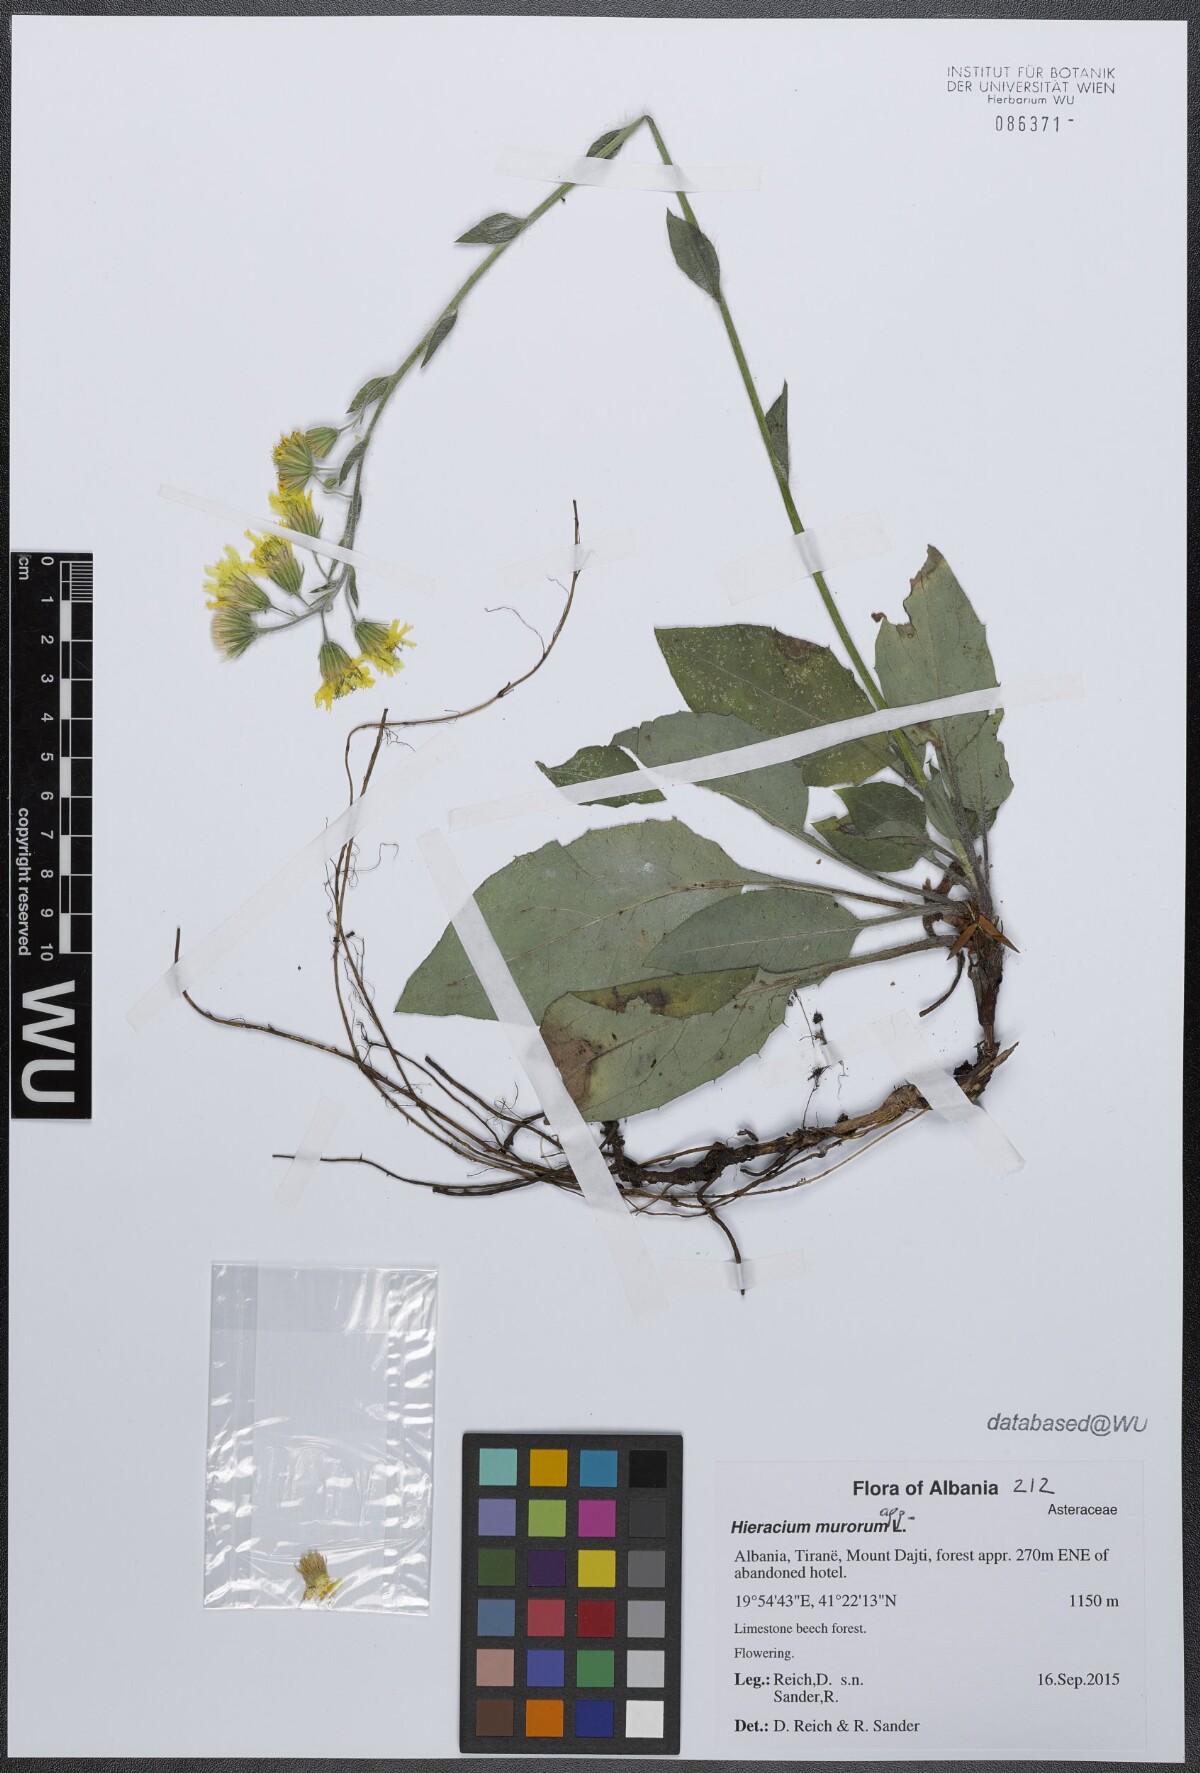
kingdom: Plantae
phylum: Tracheophyta
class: Magnoliopsida
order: Asterales
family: Asteraceae
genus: Hieracium
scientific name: Hieracium murorum
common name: Wall hawkweed
